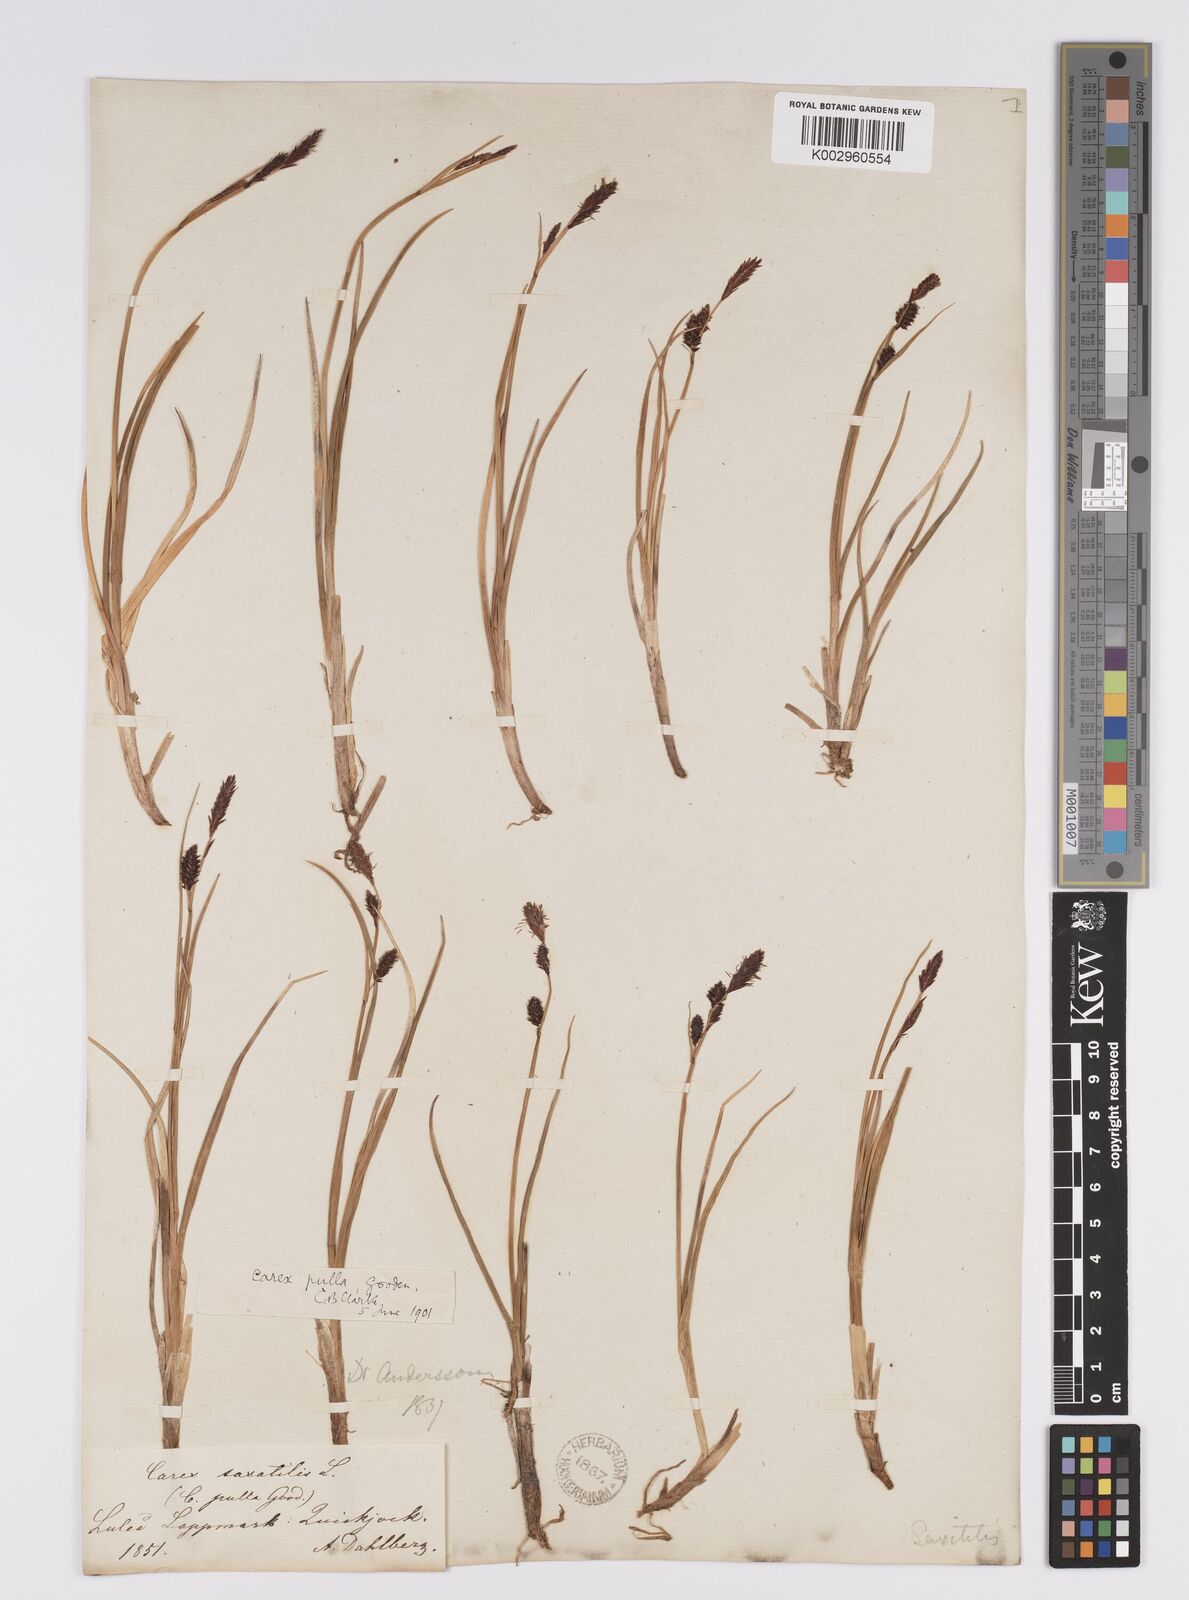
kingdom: Plantae
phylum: Tracheophyta
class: Liliopsida
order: Poales
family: Cyperaceae
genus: Carex
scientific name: Carex saxatilis
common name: Russet sedge
